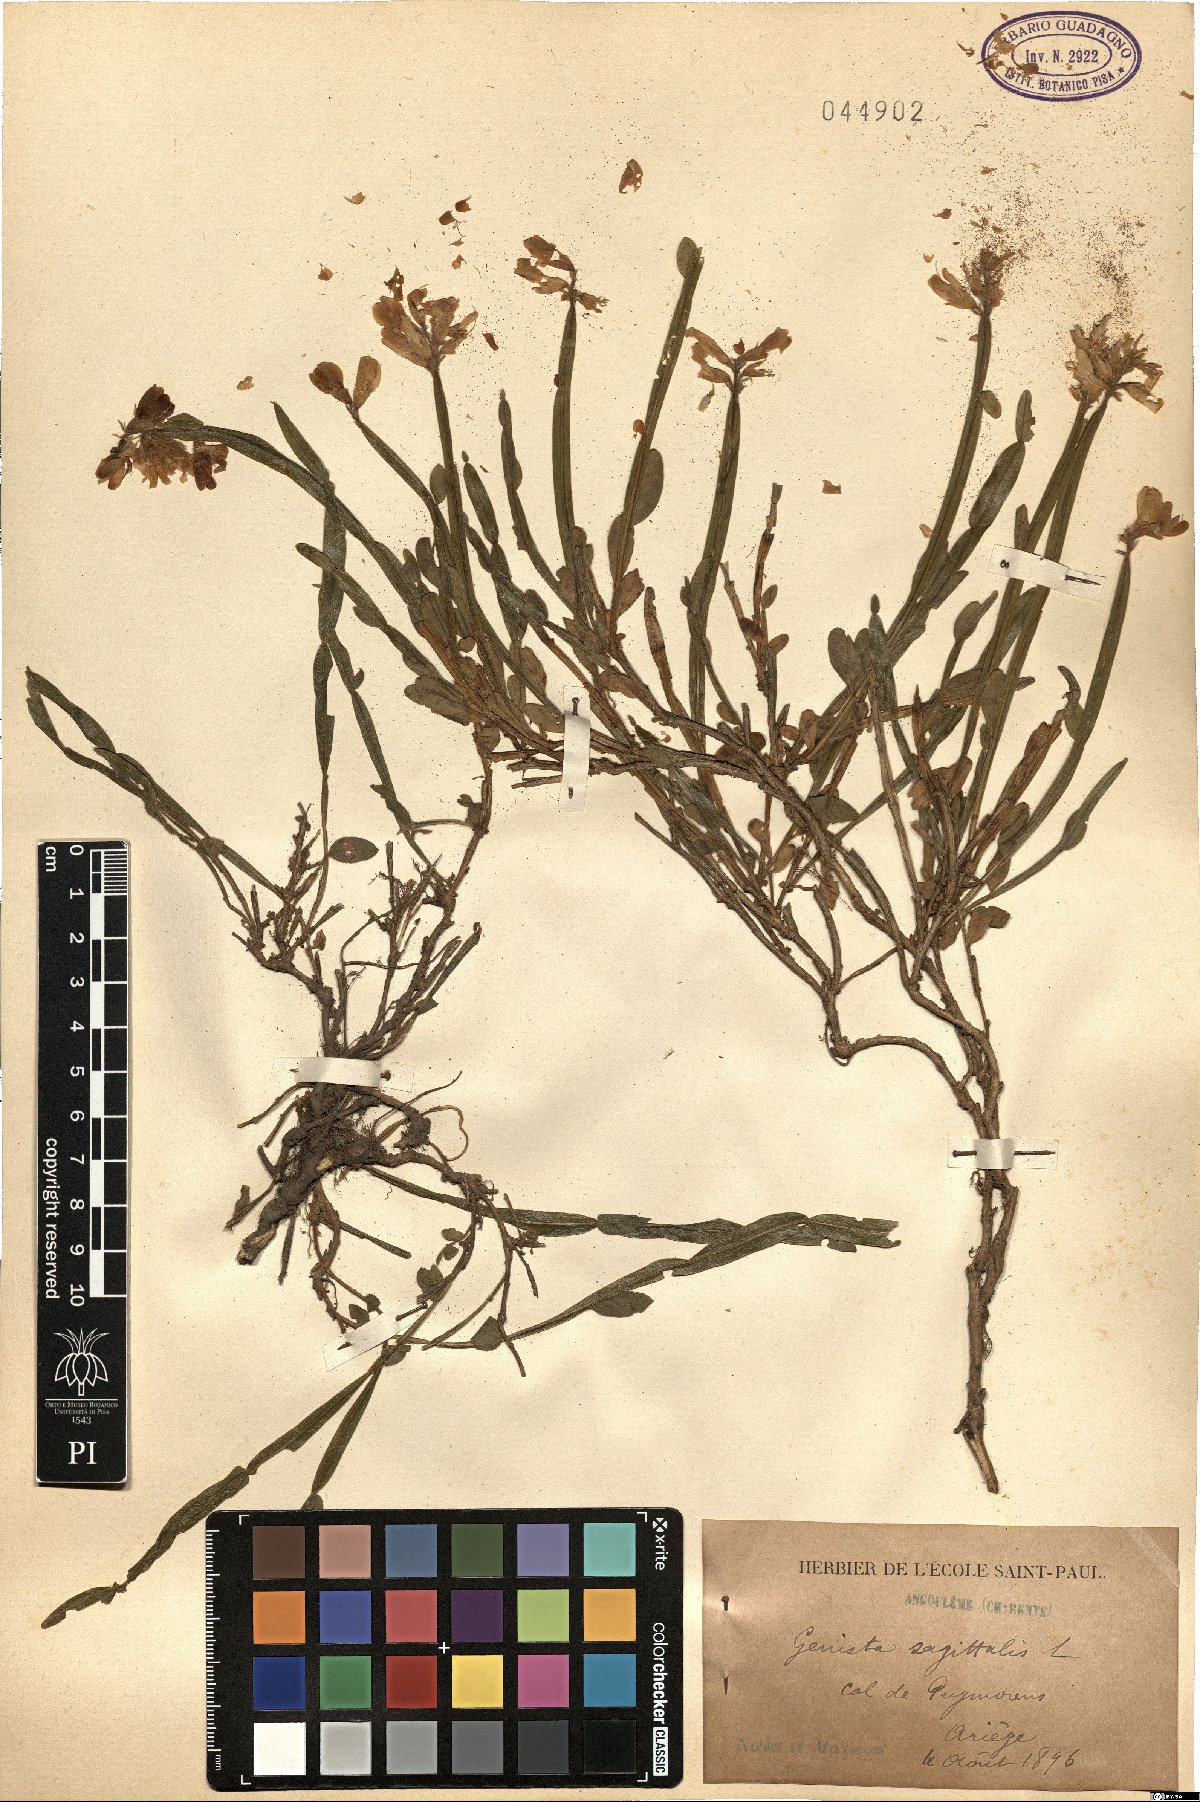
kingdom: Plantae
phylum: Tracheophyta
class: Magnoliopsida
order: Fabales
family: Fabaceae
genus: Genista
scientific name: Genista sagittalis
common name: Winged greenweed
